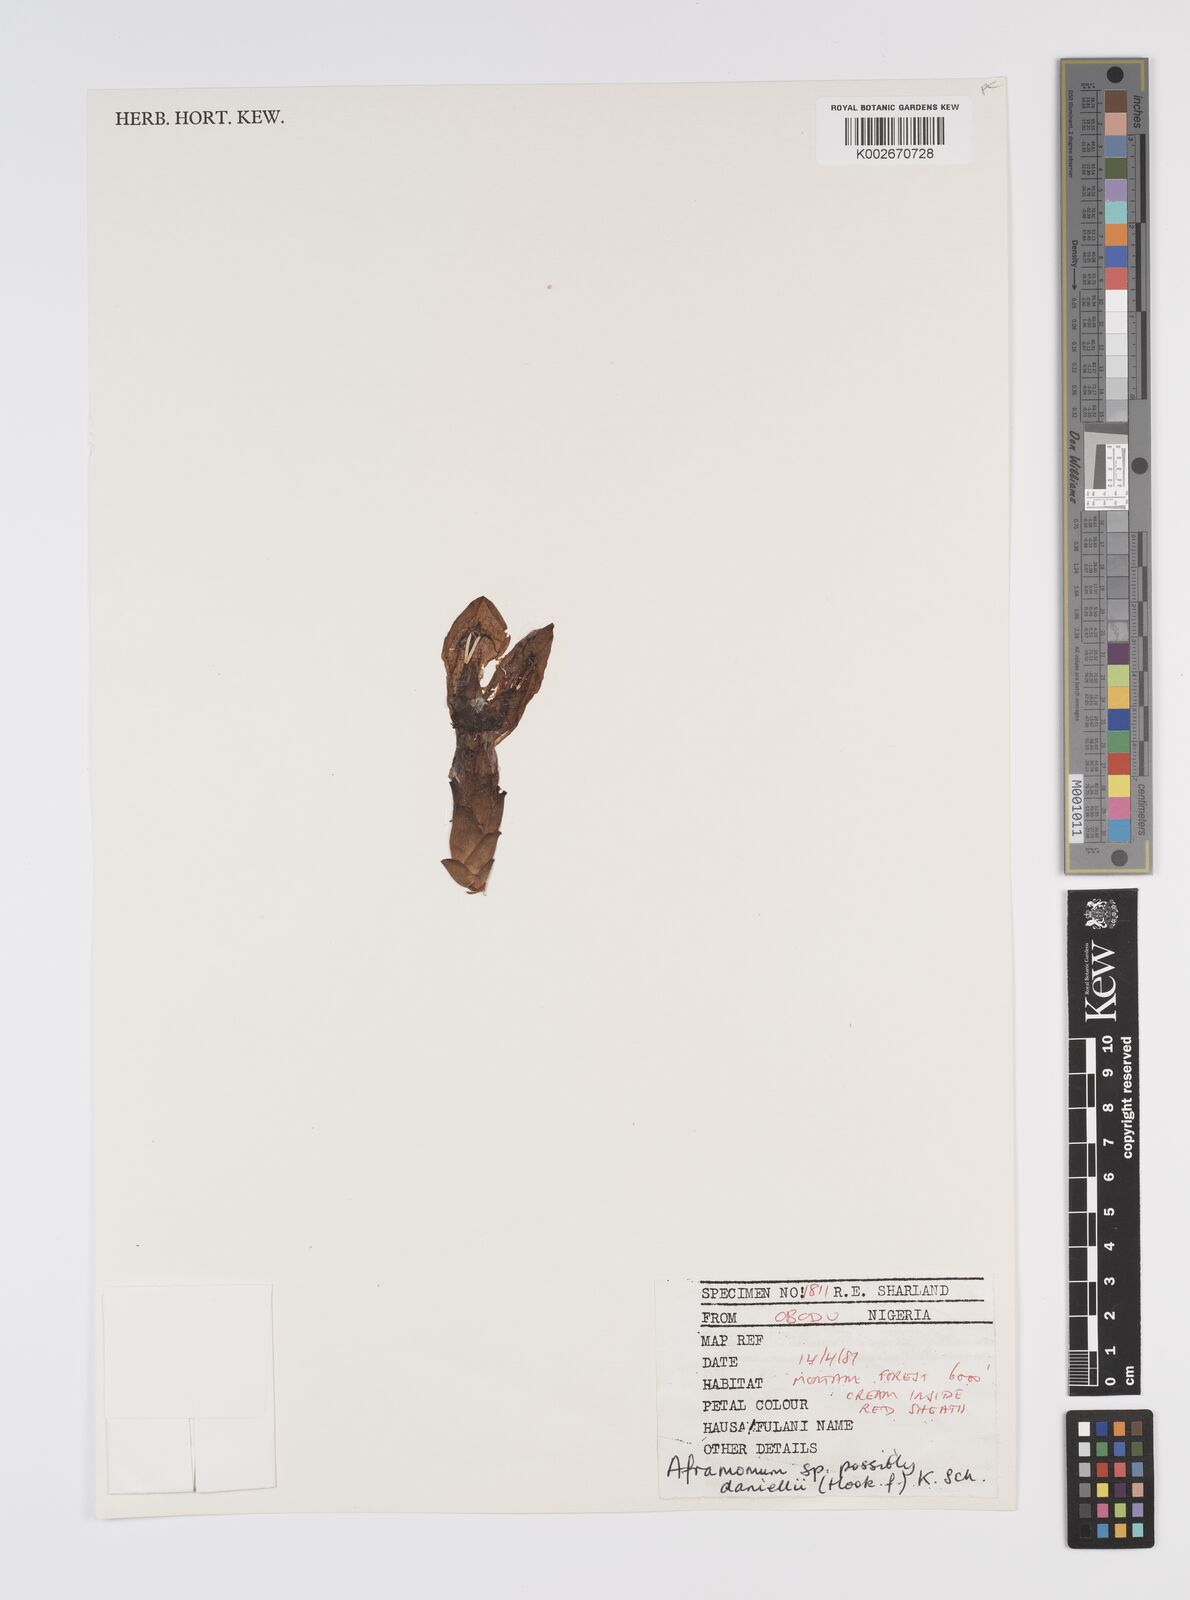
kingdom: Plantae
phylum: Tracheophyta
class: Liliopsida
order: Zingiberales
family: Zingiberaceae
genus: Aframomum
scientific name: Aframomum daniellii
